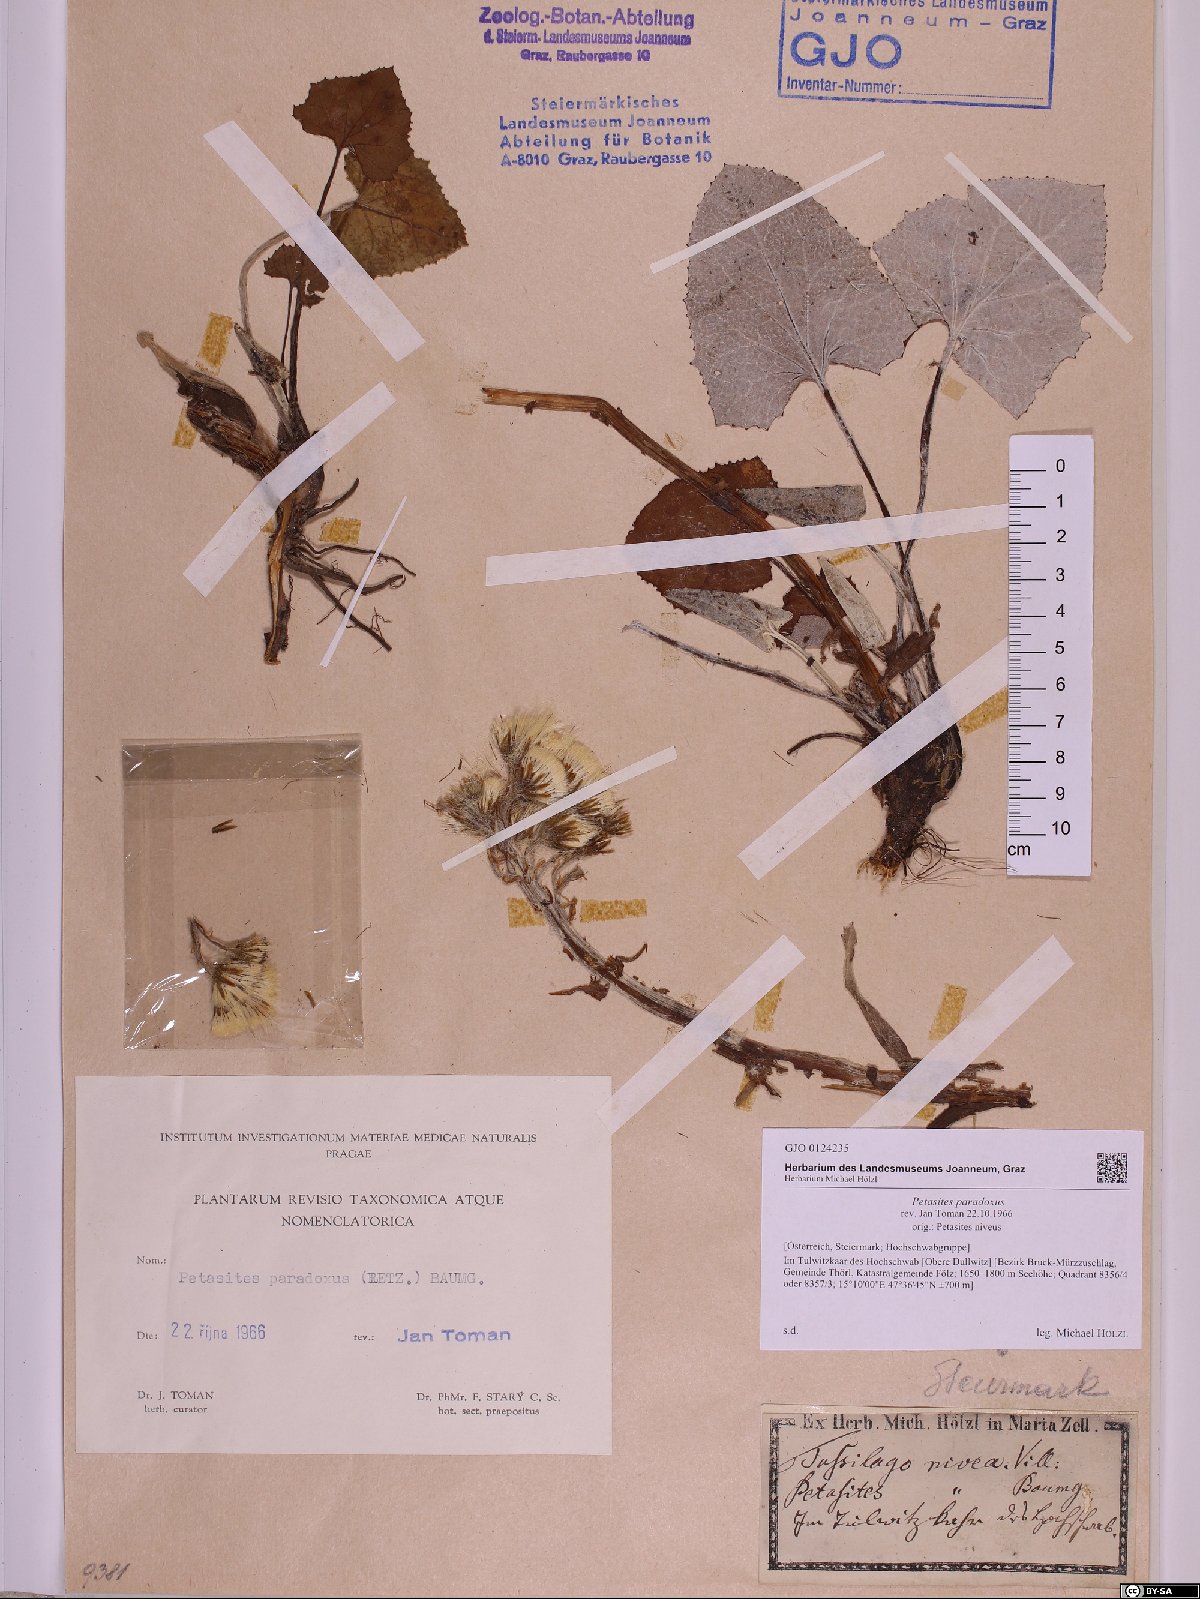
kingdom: Plantae
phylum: Tracheophyta
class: Magnoliopsida
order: Asterales
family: Asteraceae
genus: Petasites
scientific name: Petasites paradoxus
